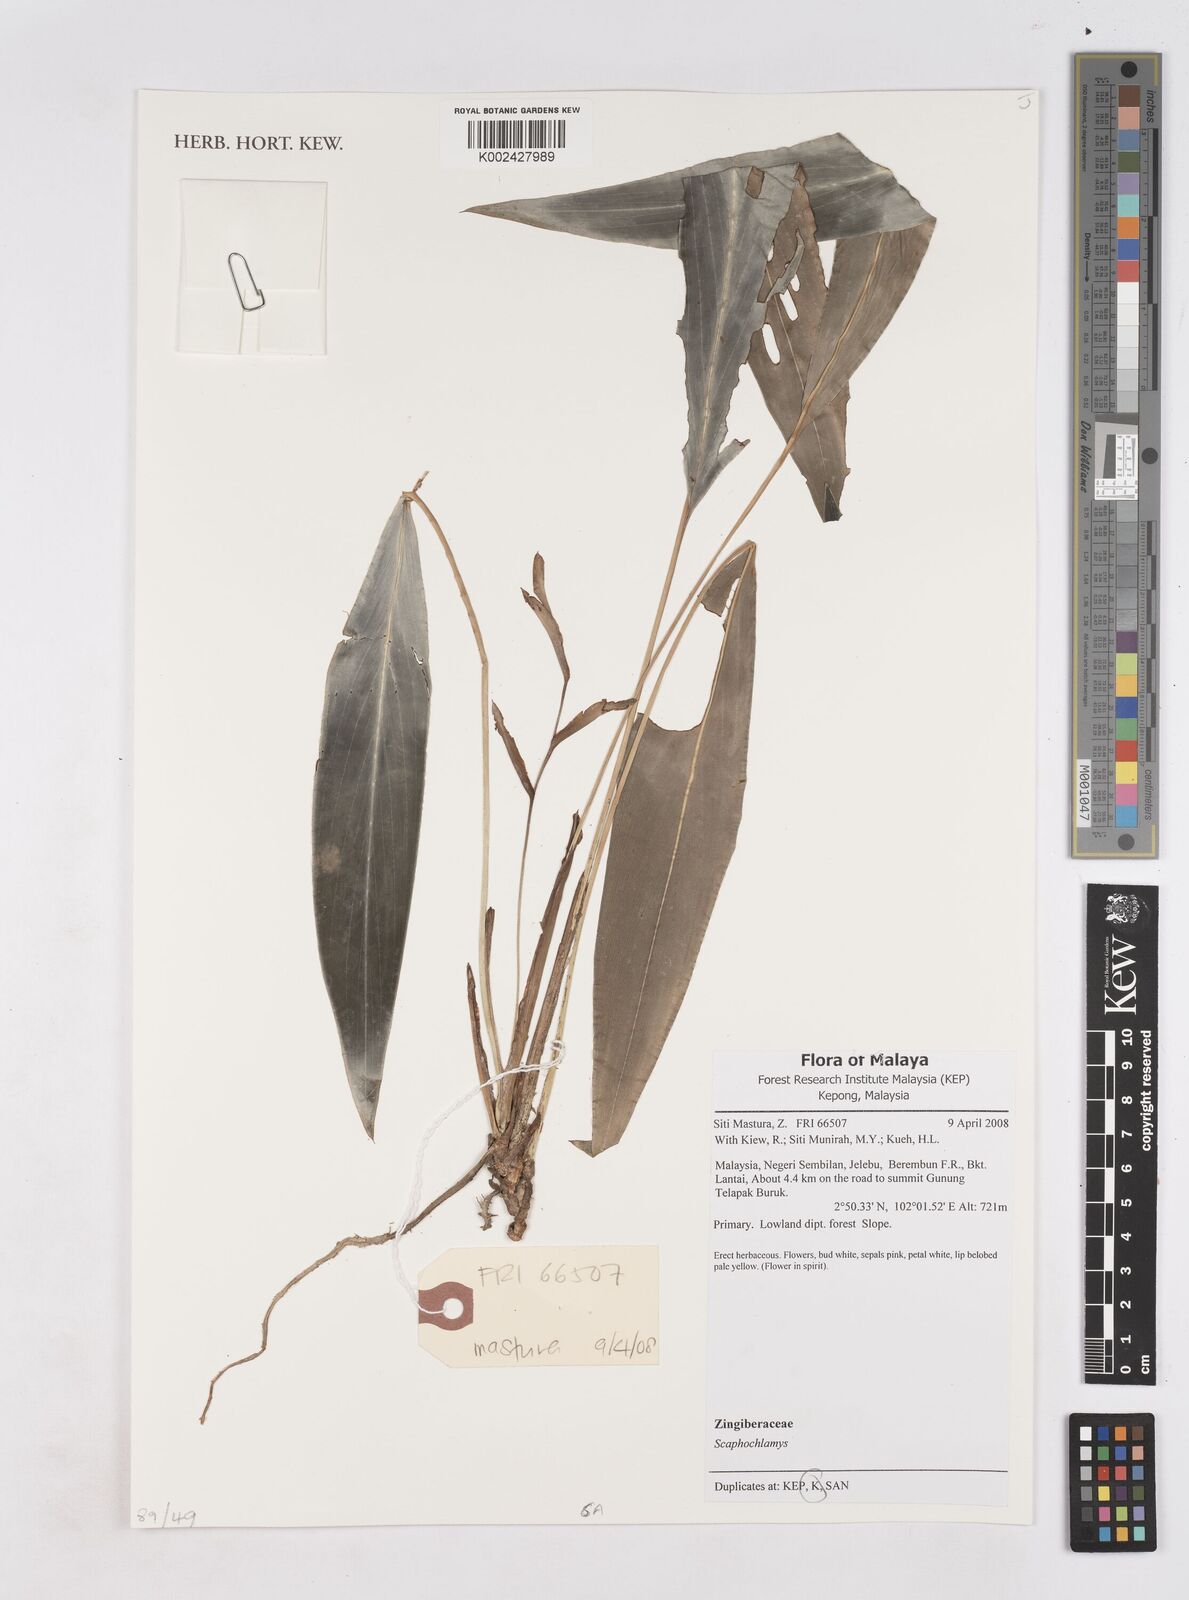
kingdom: Plantae
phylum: Tracheophyta
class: Liliopsida
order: Zingiberales
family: Zingiberaceae
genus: Scaphochlamys
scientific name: Scaphochlamys
